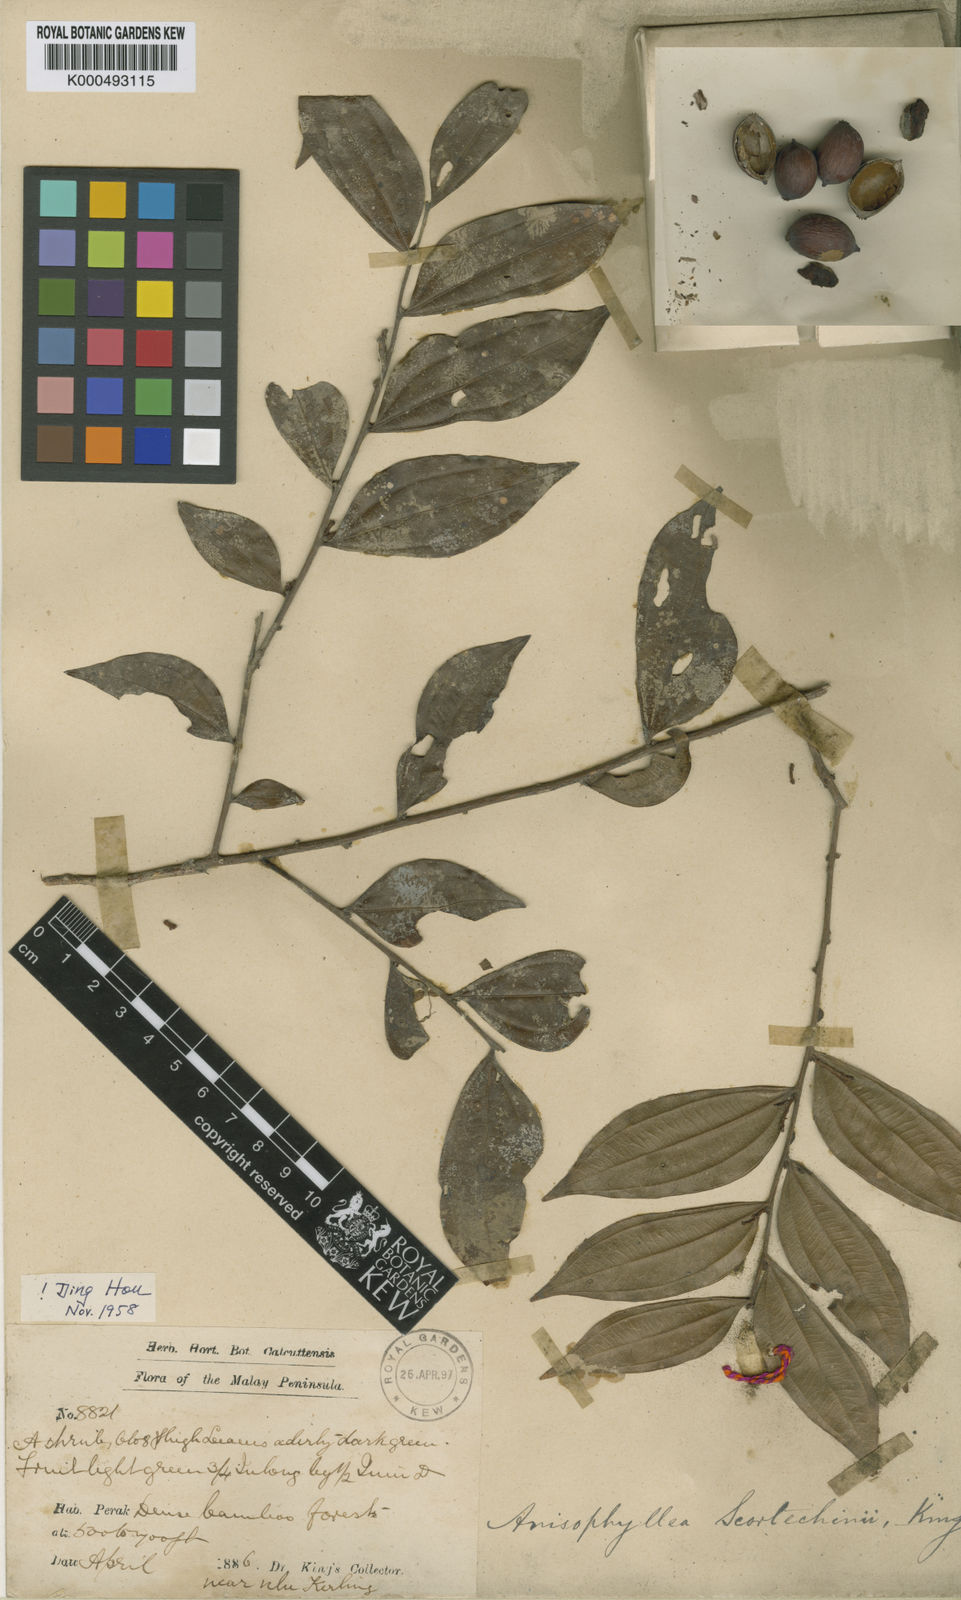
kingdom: Plantae
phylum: Tracheophyta
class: Magnoliopsida
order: Cucurbitales
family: Anisophylleaceae
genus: Anisophyllea
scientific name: Anisophyllea scortechinii
